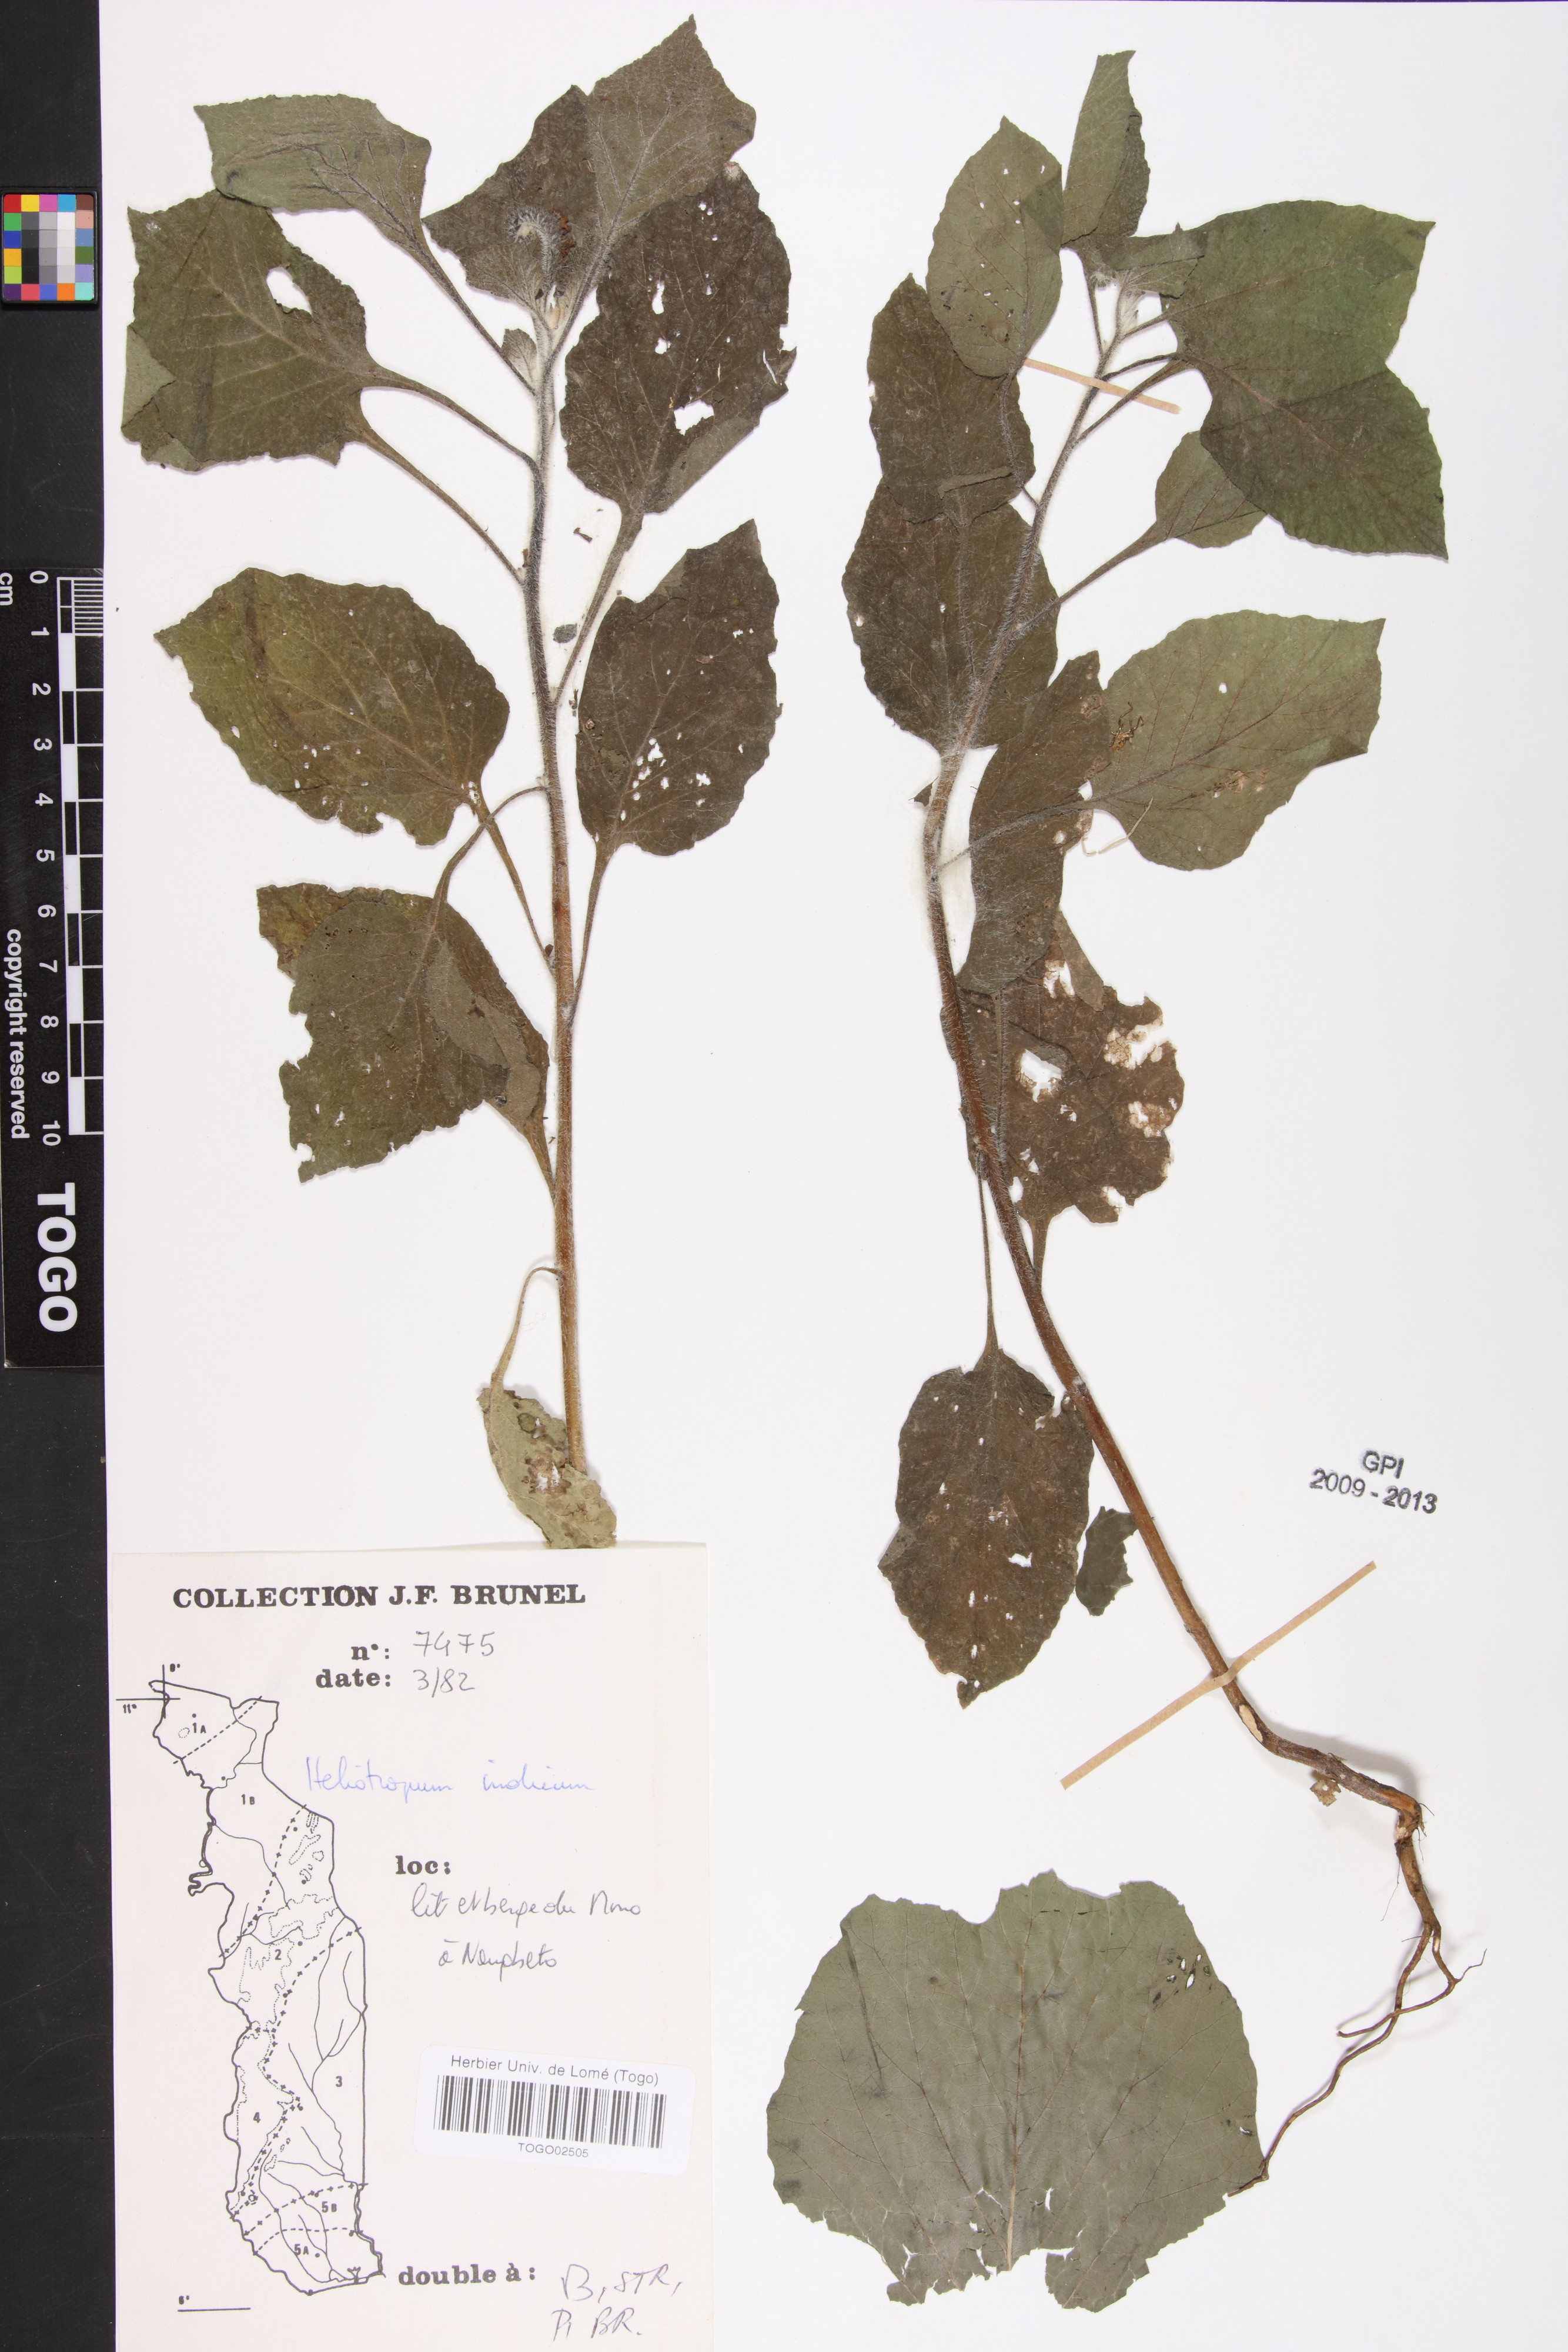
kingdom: Plantae
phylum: Tracheophyta
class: Magnoliopsida
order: Boraginales
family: Heliotropiaceae
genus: Heliotropium
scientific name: Heliotropium indicum
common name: Indian heliotrope
